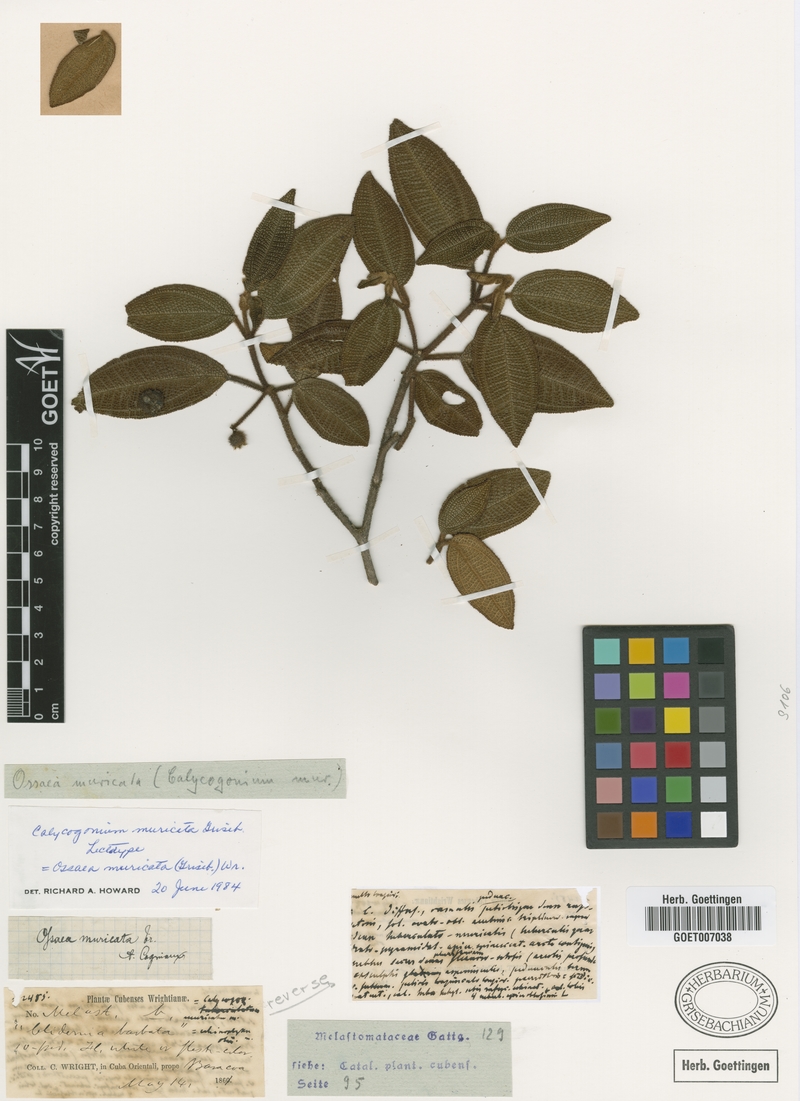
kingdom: Plantae
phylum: Tracheophyta
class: Magnoliopsida
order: Myrtales
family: Melastomataceae
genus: Miconia
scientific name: Miconia argentimuricata
